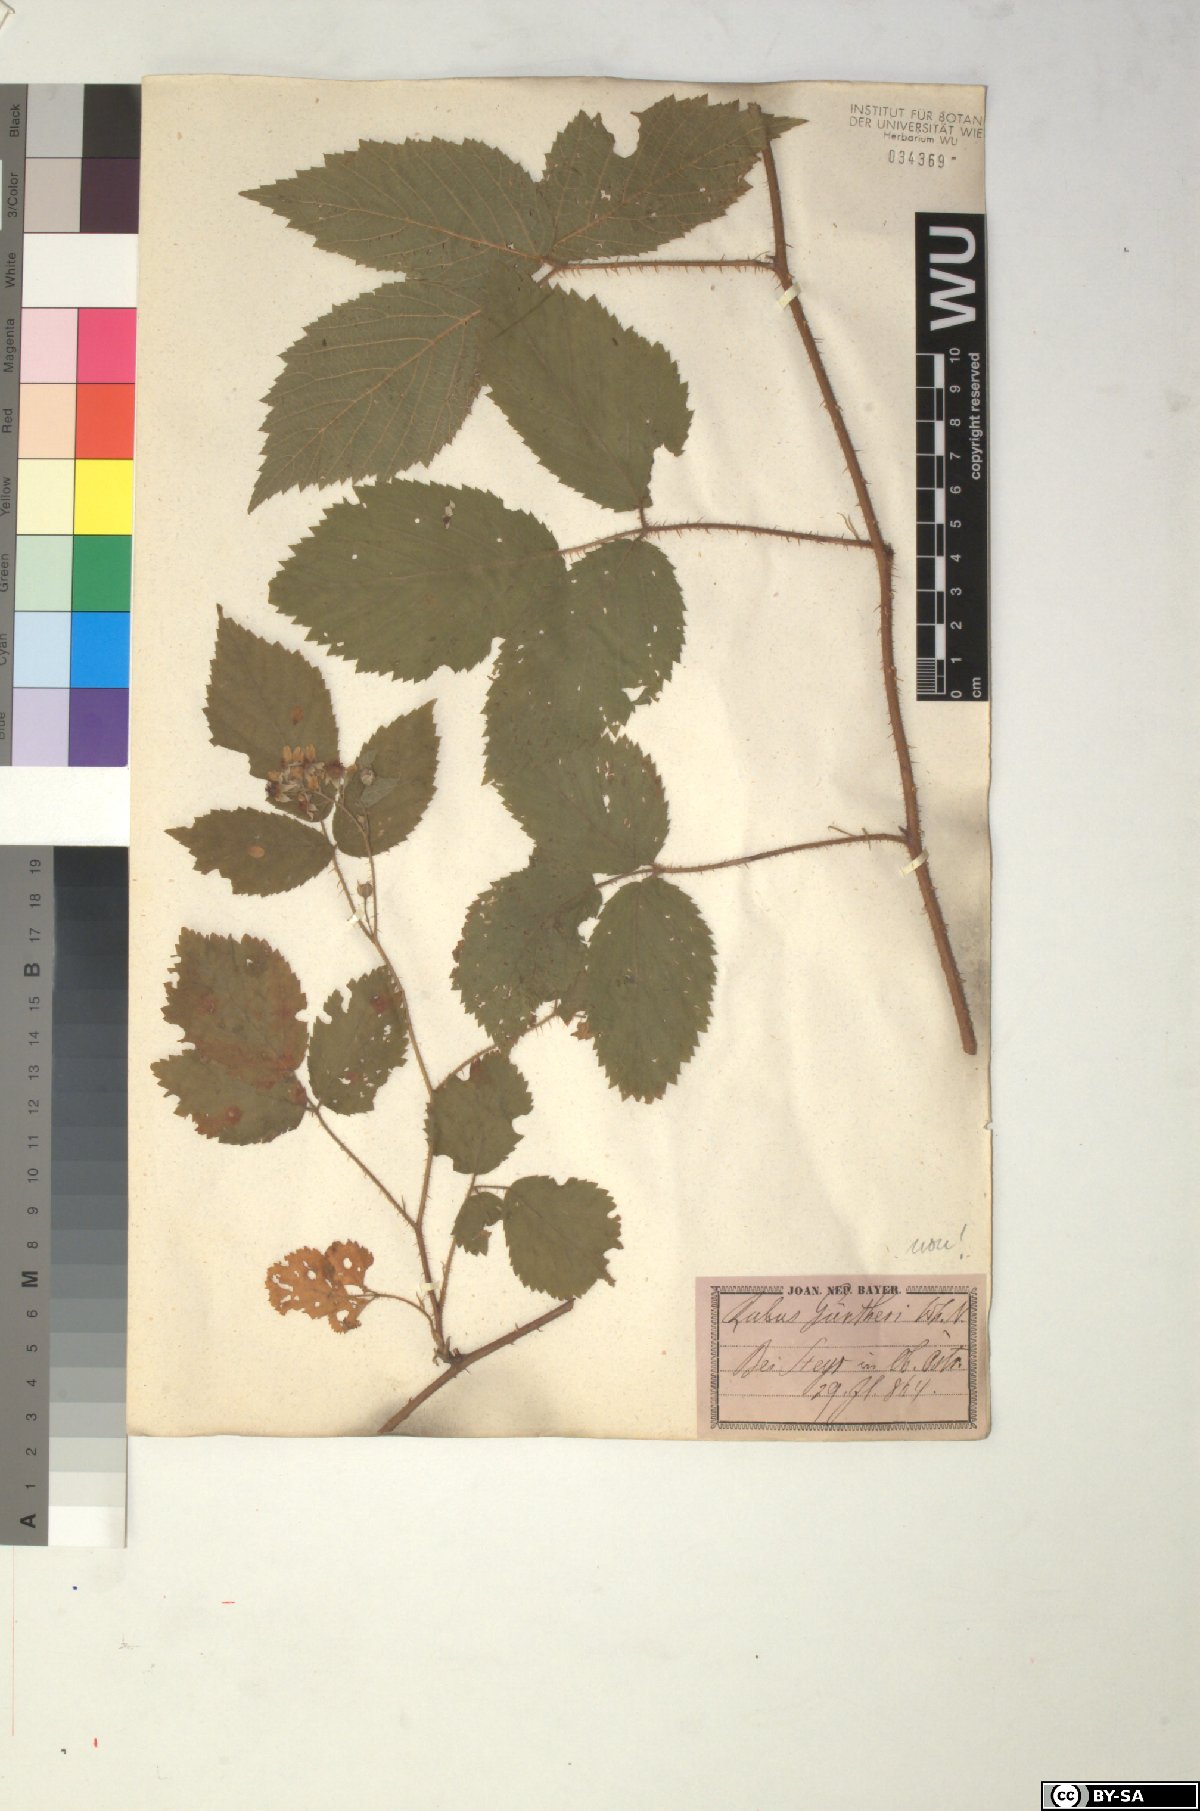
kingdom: Plantae
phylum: Tracheophyta
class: Magnoliopsida
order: Rosales
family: Rosaceae
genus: Rubus
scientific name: Rubus
